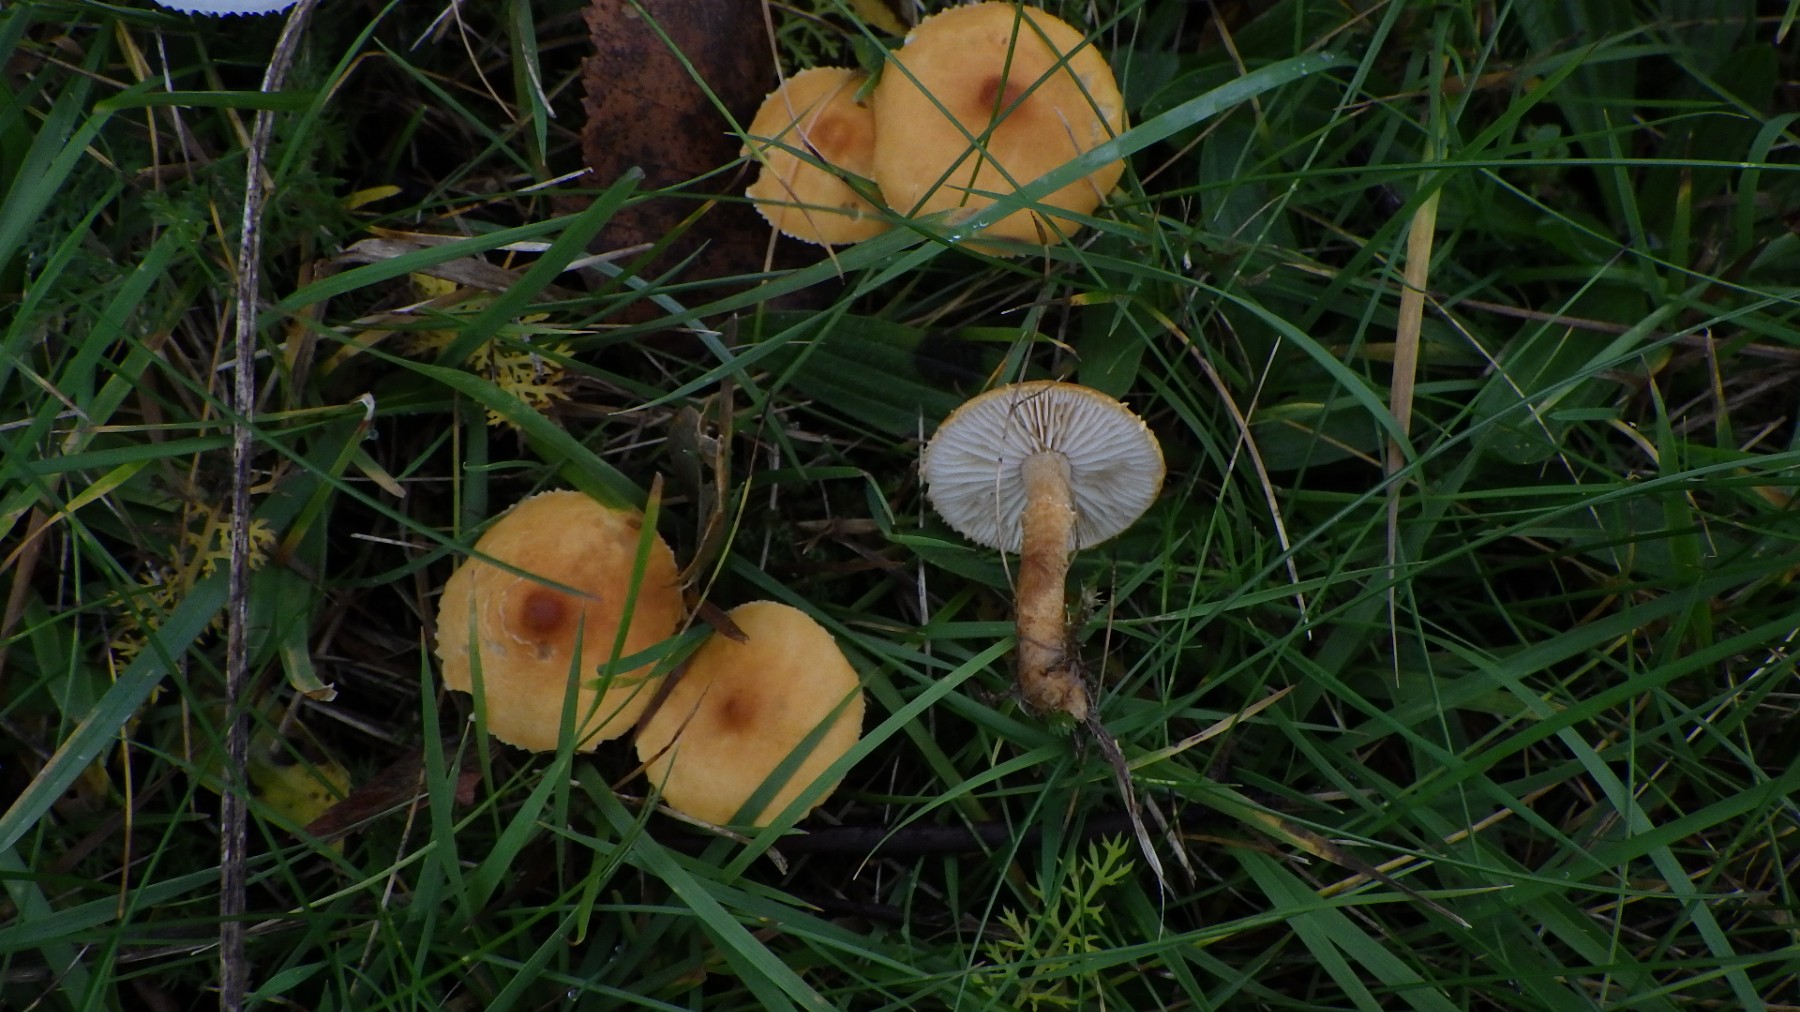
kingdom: Fungi
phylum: Basidiomycota
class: Agaricomycetes
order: Agaricales
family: Tricholomataceae
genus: Cystoderma
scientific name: Cystoderma amianthinum
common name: okkergul grynhat
